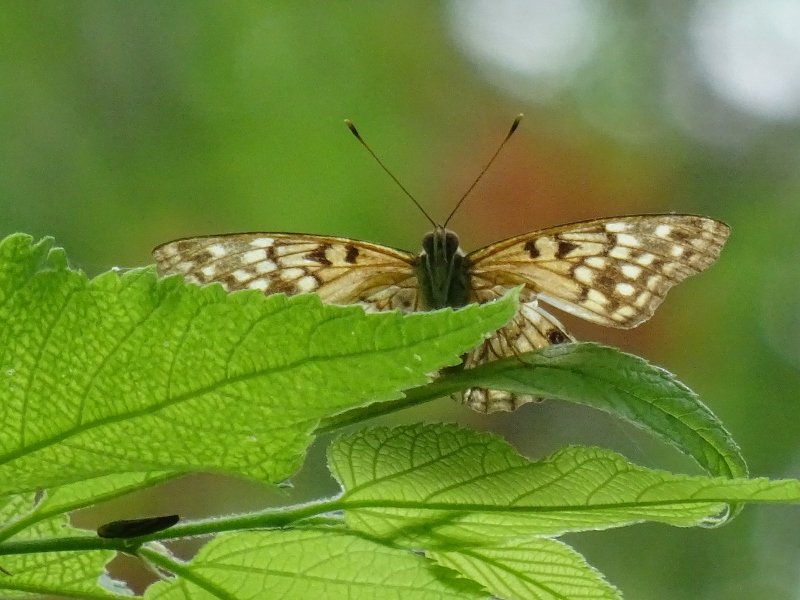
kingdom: Animalia
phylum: Arthropoda
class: Insecta
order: Lepidoptera
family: Nymphalidae
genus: Asterocampa
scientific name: Asterocampa clyton
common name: Tawny Emperor
